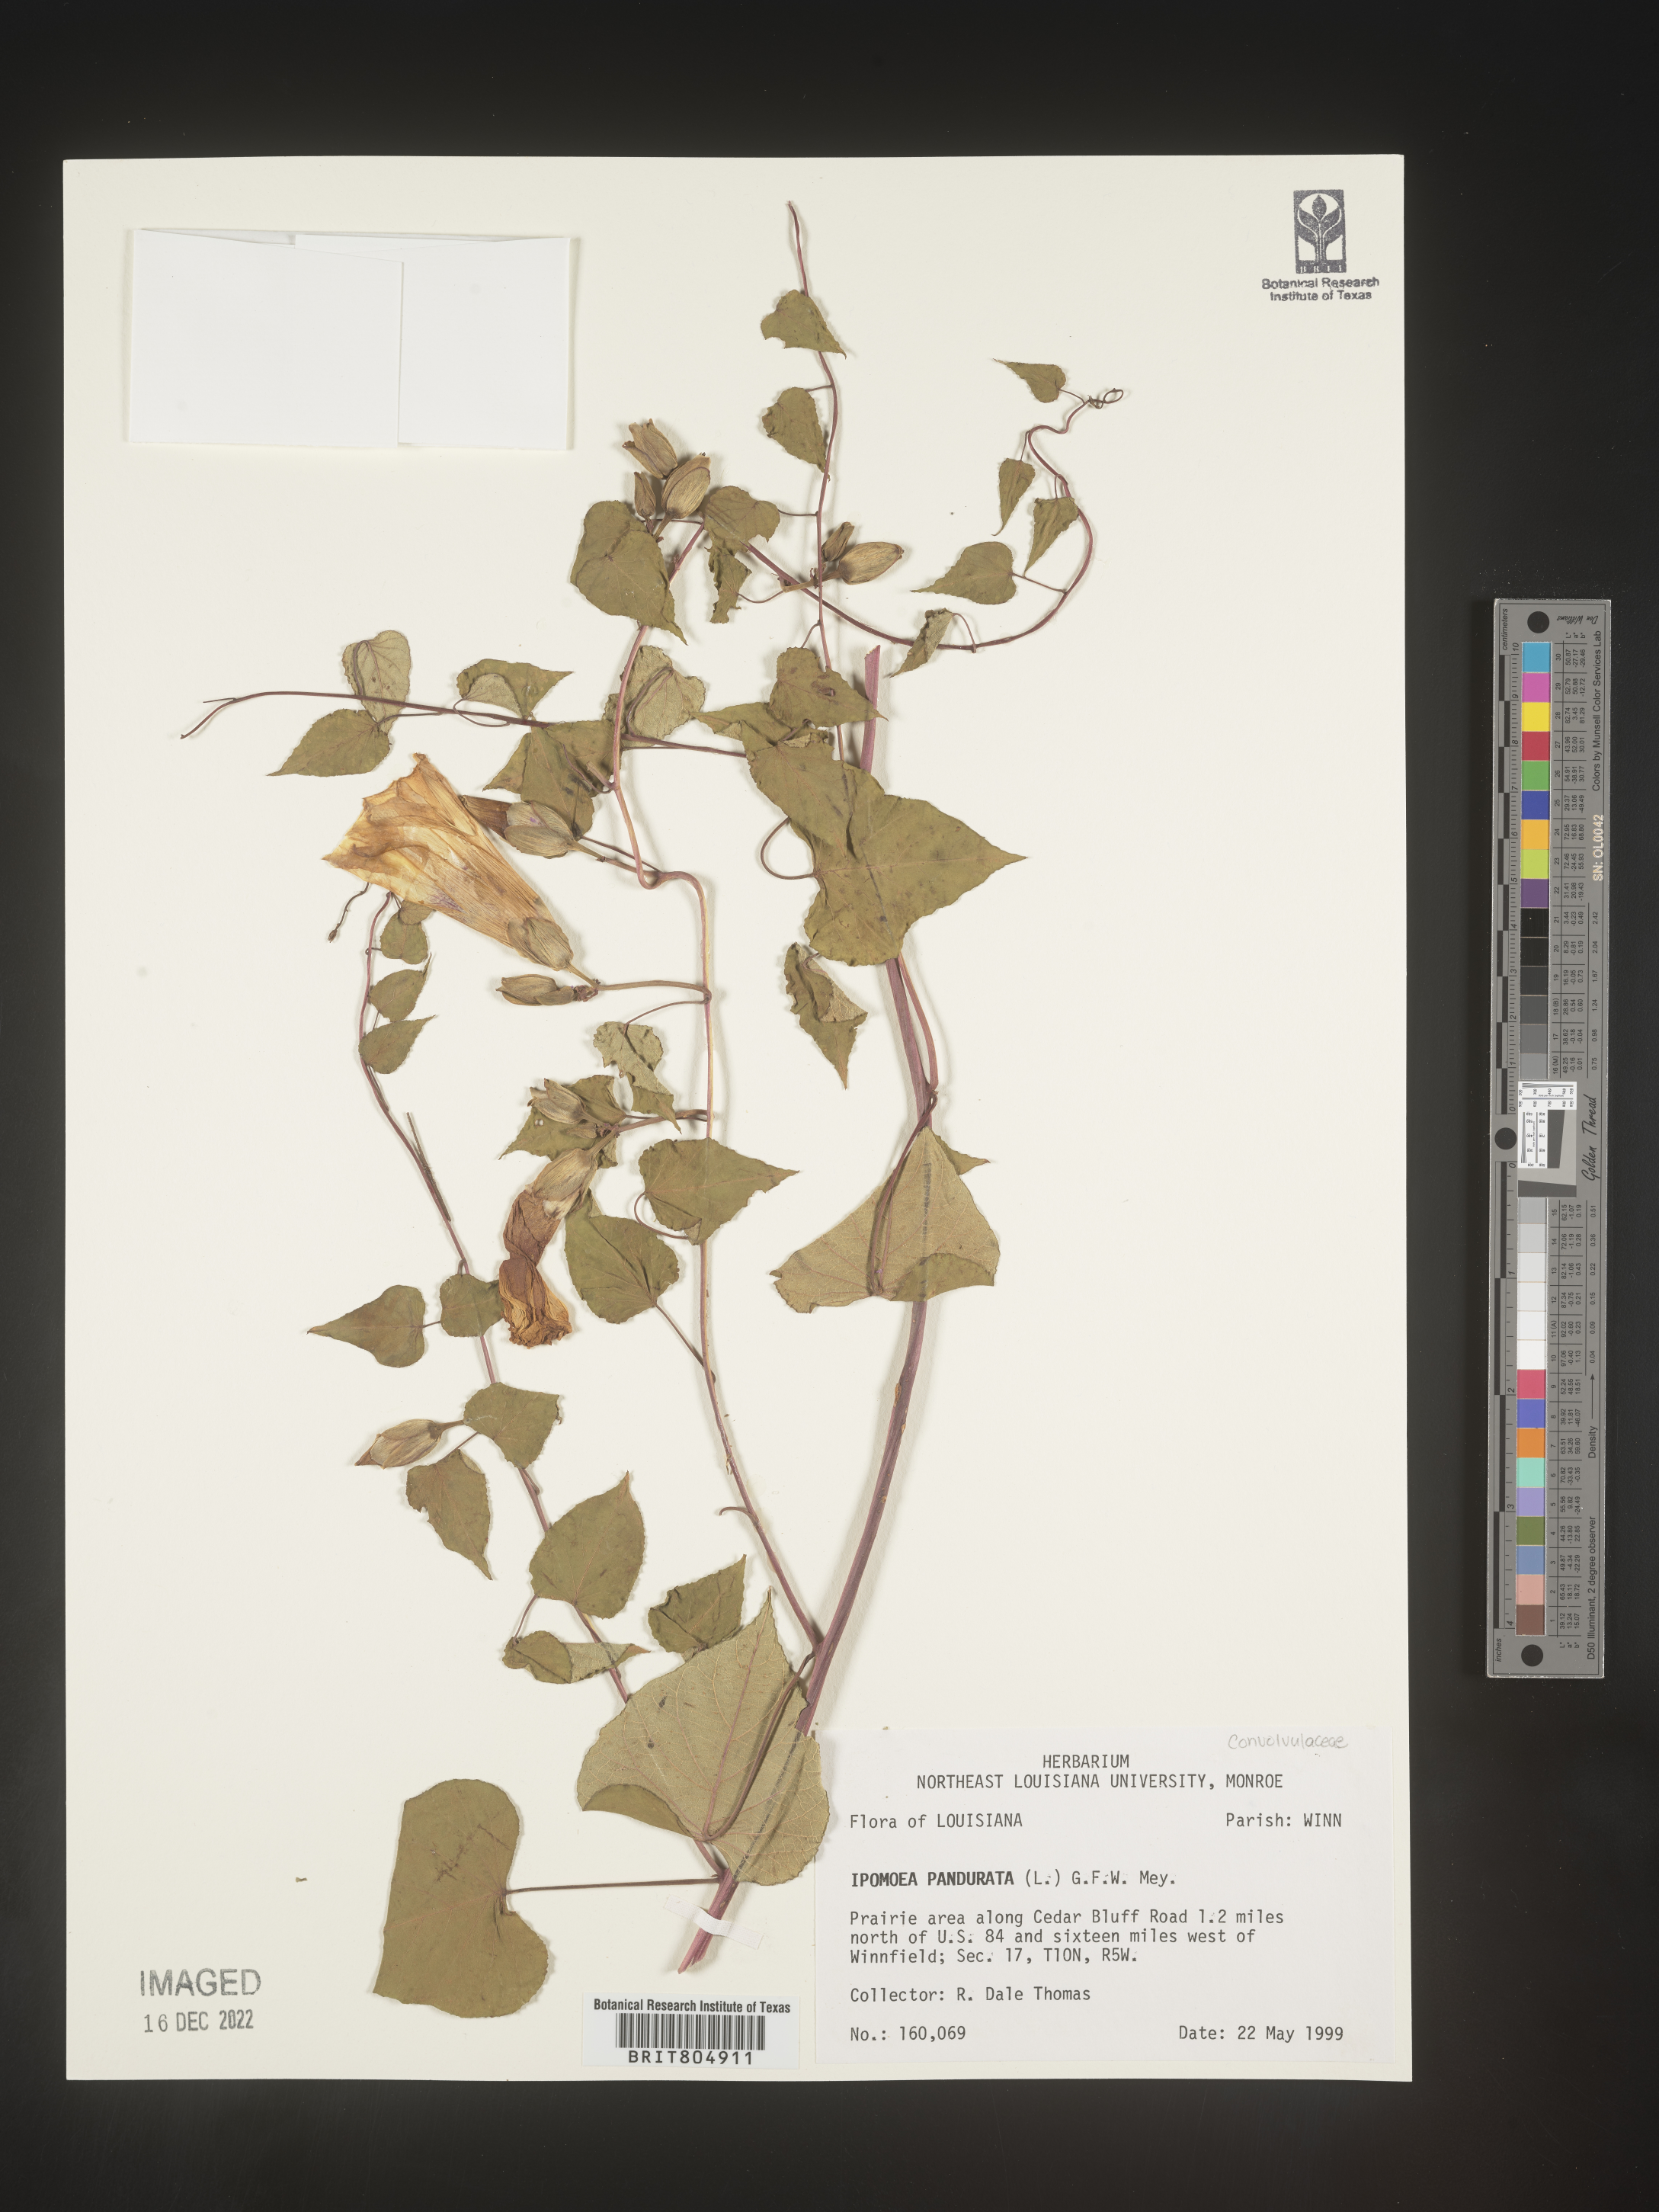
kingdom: Plantae
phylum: Tracheophyta
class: Magnoliopsida
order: Solanales
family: Convolvulaceae
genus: Ipomoea
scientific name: Ipomoea pandurata
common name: Man-of-the-earth
